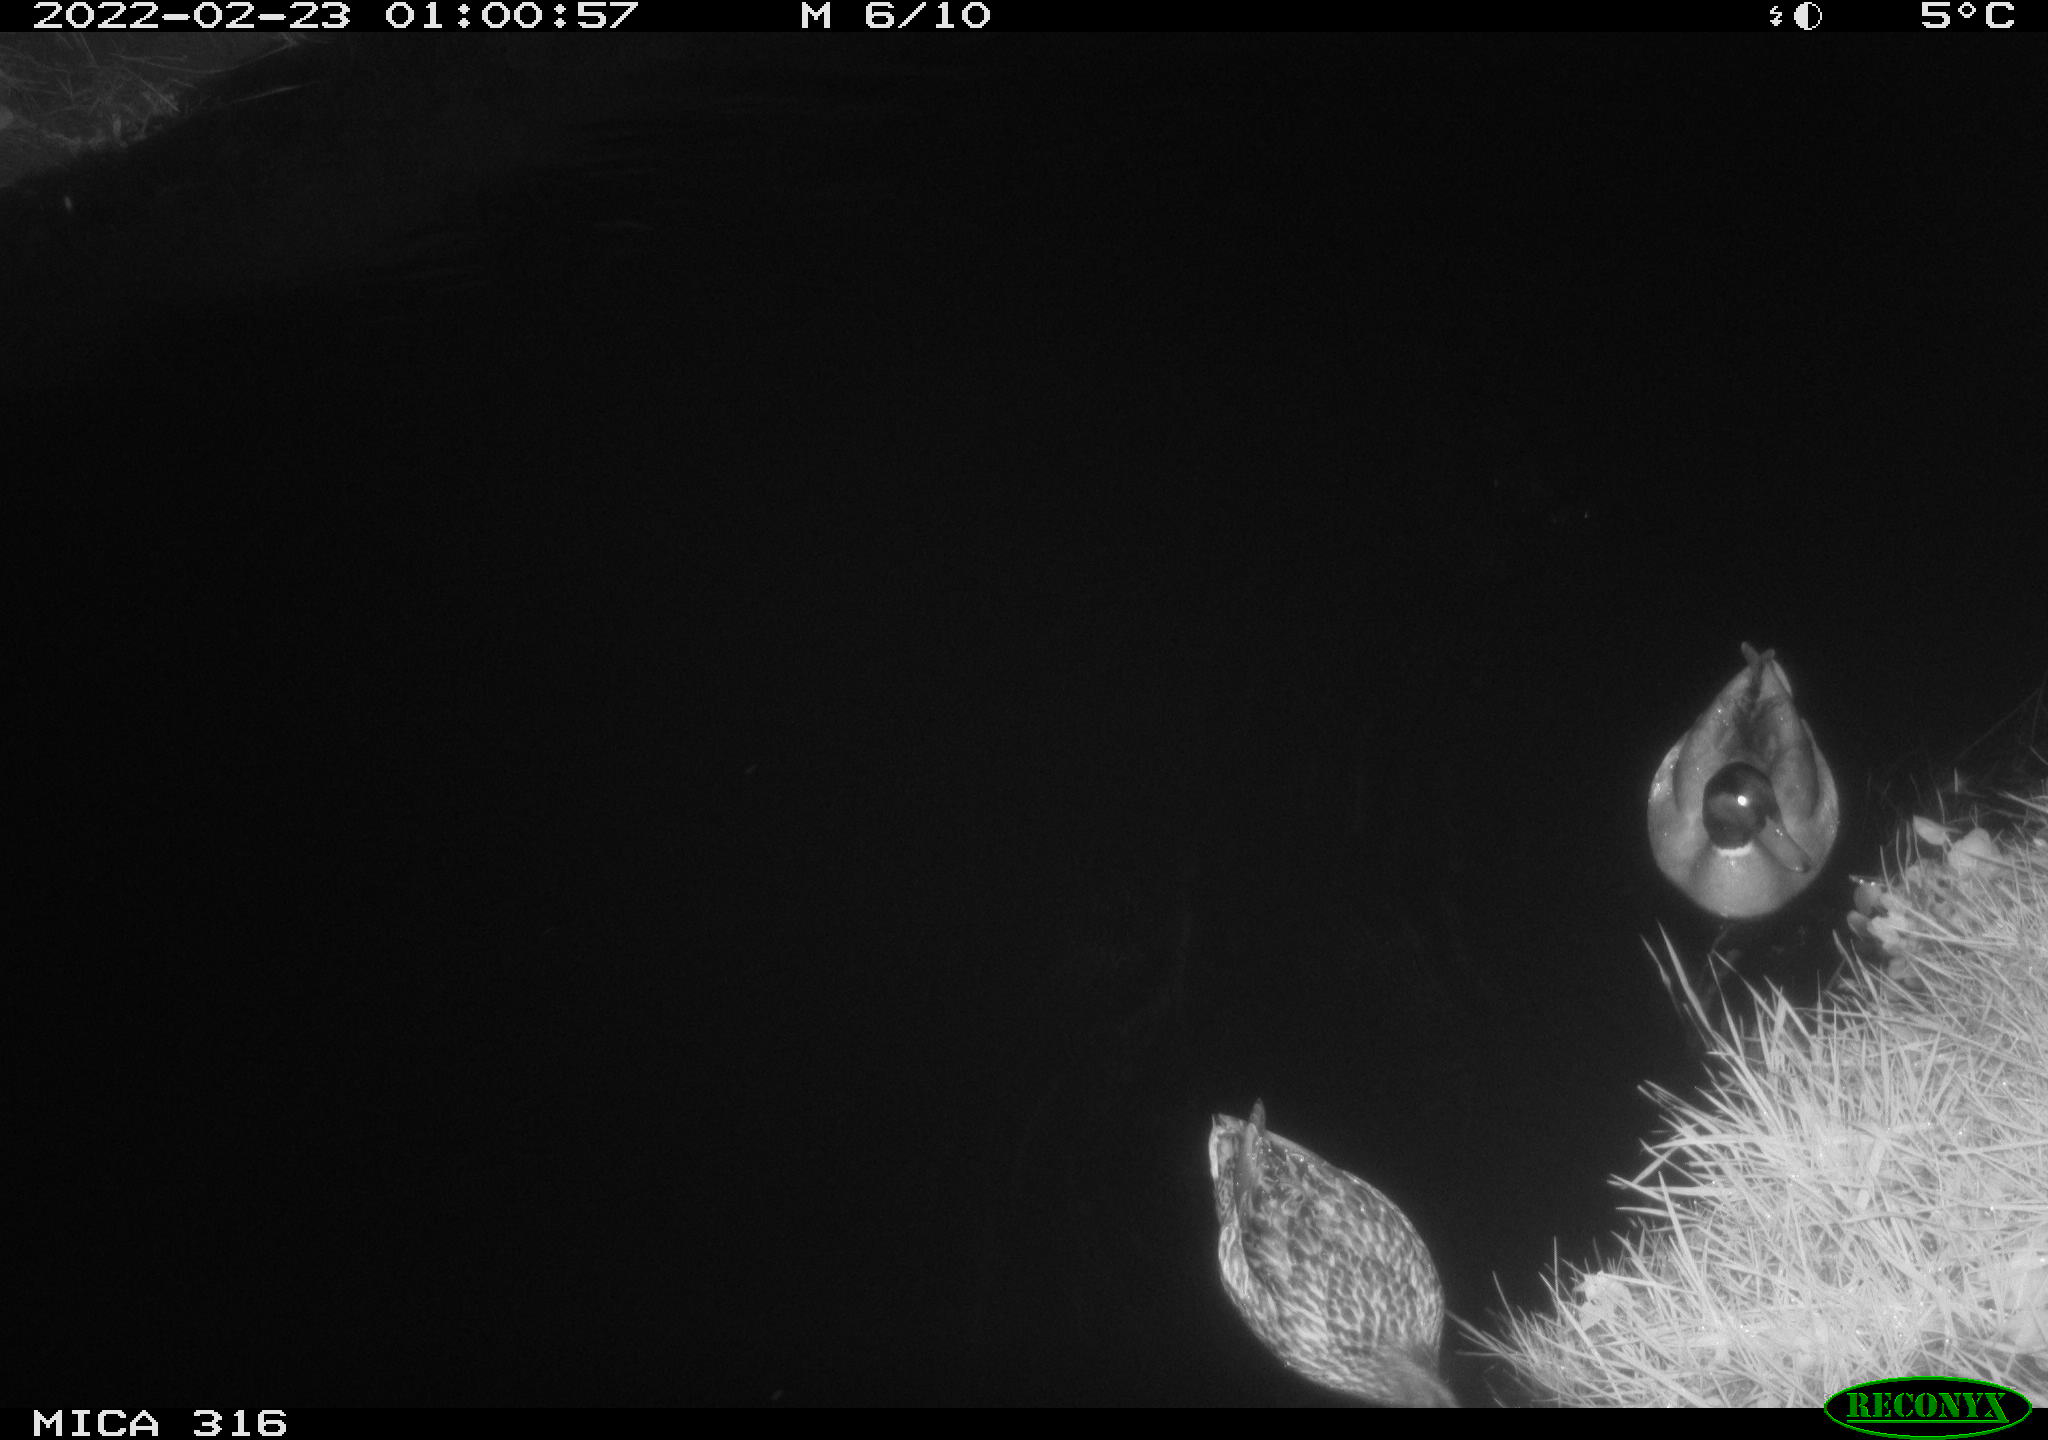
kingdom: Animalia
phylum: Chordata
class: Aves
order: Anseriformes
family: Anatidae
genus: Anas
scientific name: Anas platyrhynchos
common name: Mallard
